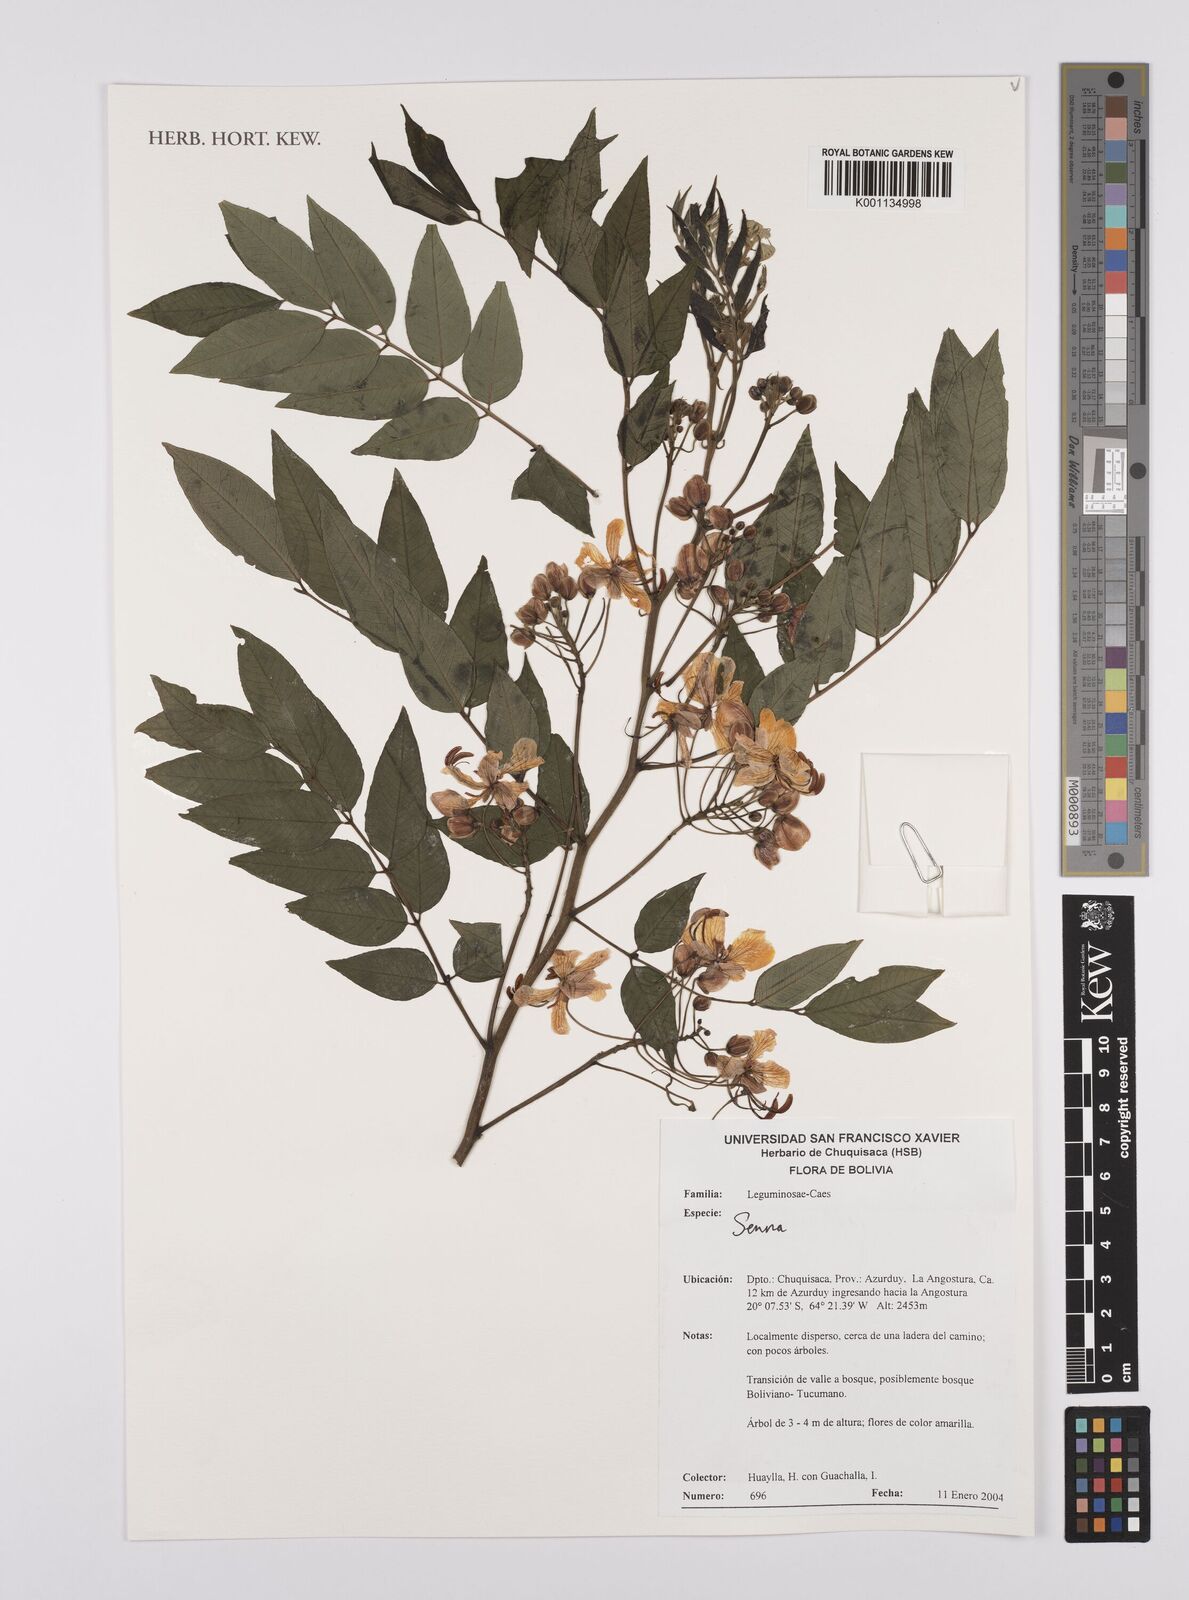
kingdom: Plantae
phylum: Tracheophyta
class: Magnoliopsida
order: Fabales
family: Fabaceae
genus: Senna
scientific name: Senna
